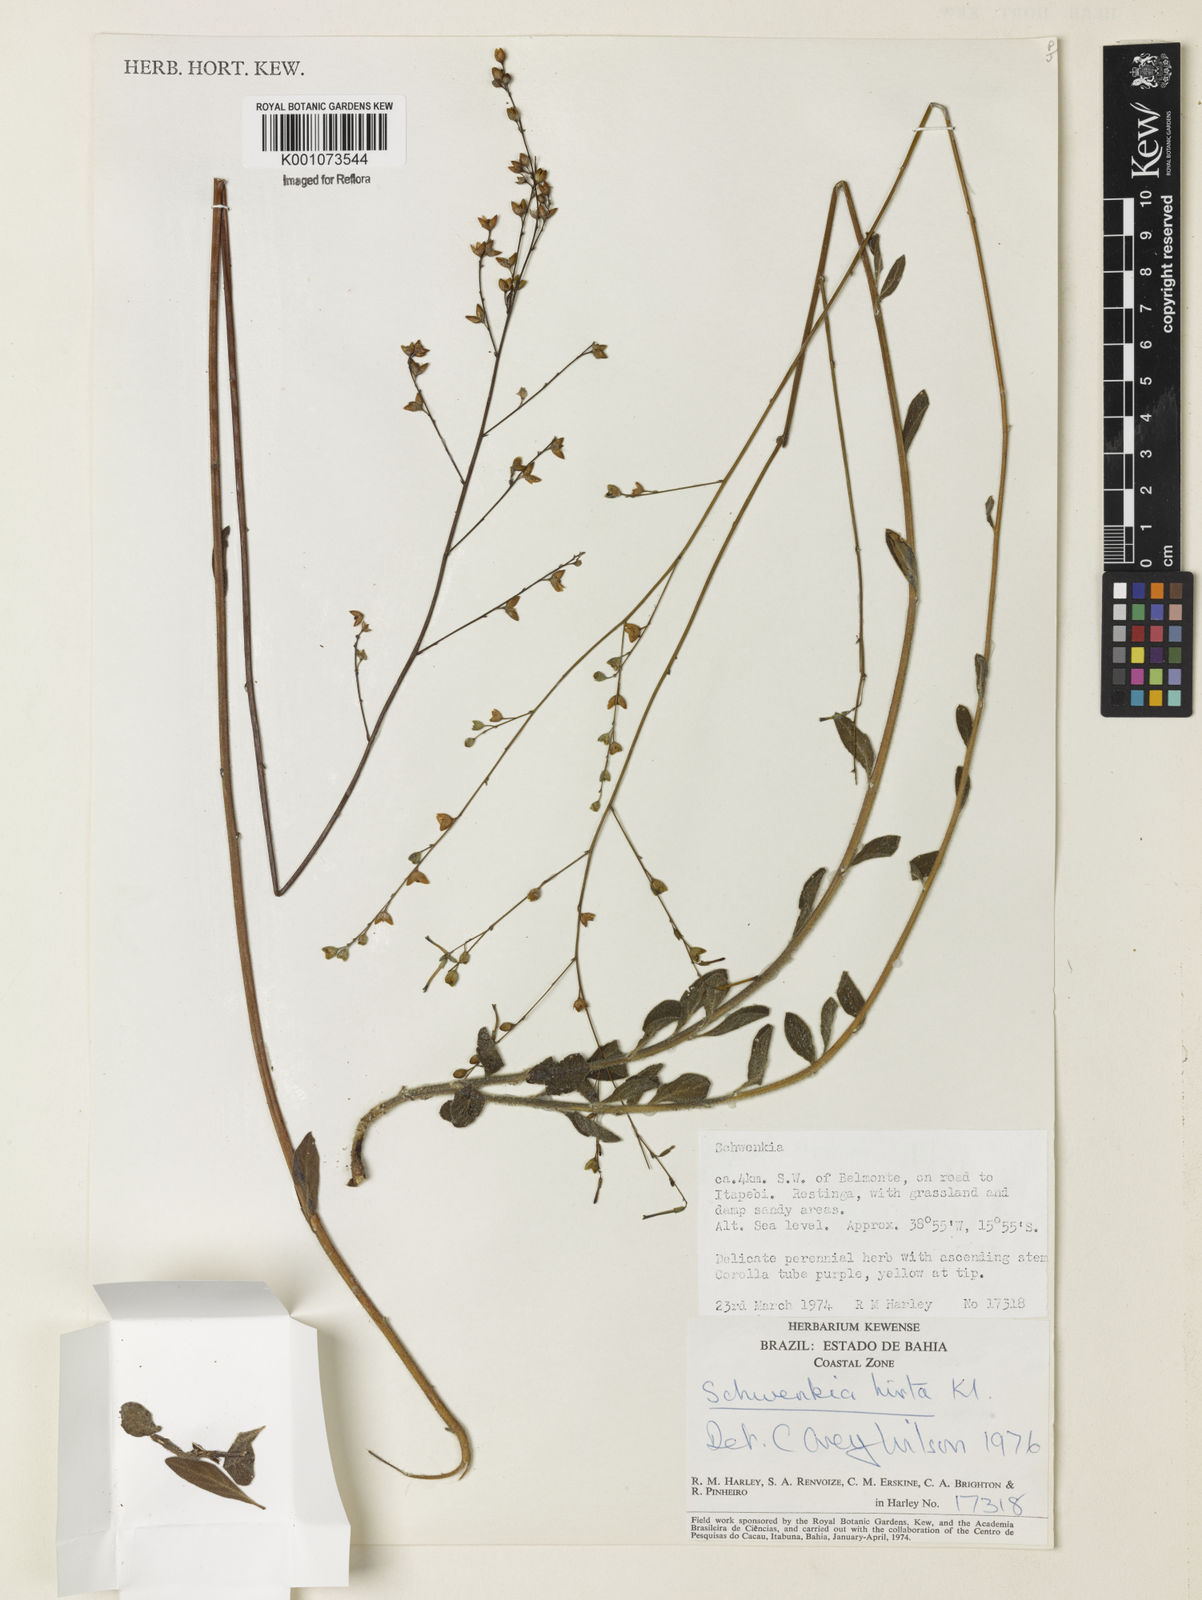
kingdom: Plantae
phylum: Tracheophyta
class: Magnoliopsida
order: Solanales
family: Solanaceae
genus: Schwenckia
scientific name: Schwenckia americana
